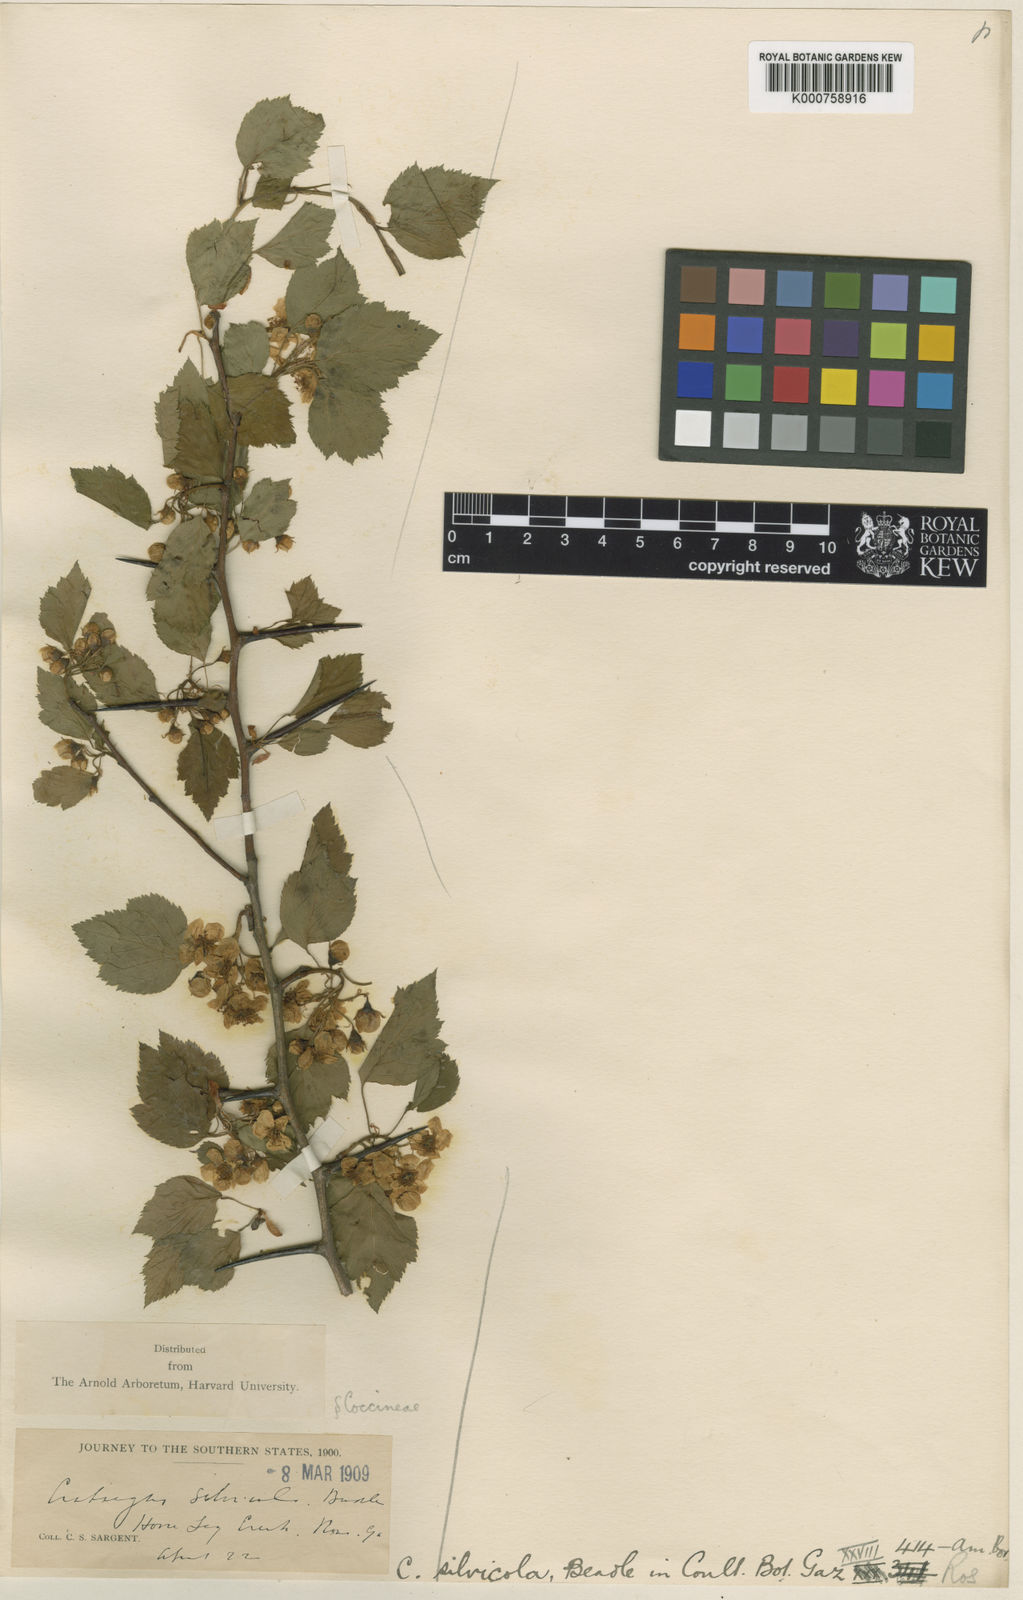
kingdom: Plantae
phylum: Tracheophyta
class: Magnoliopsida
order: Rosales
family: Rosaceae
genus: Crataegus
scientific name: Crataegus iracunda
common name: Stolon-bearing hawthorn
